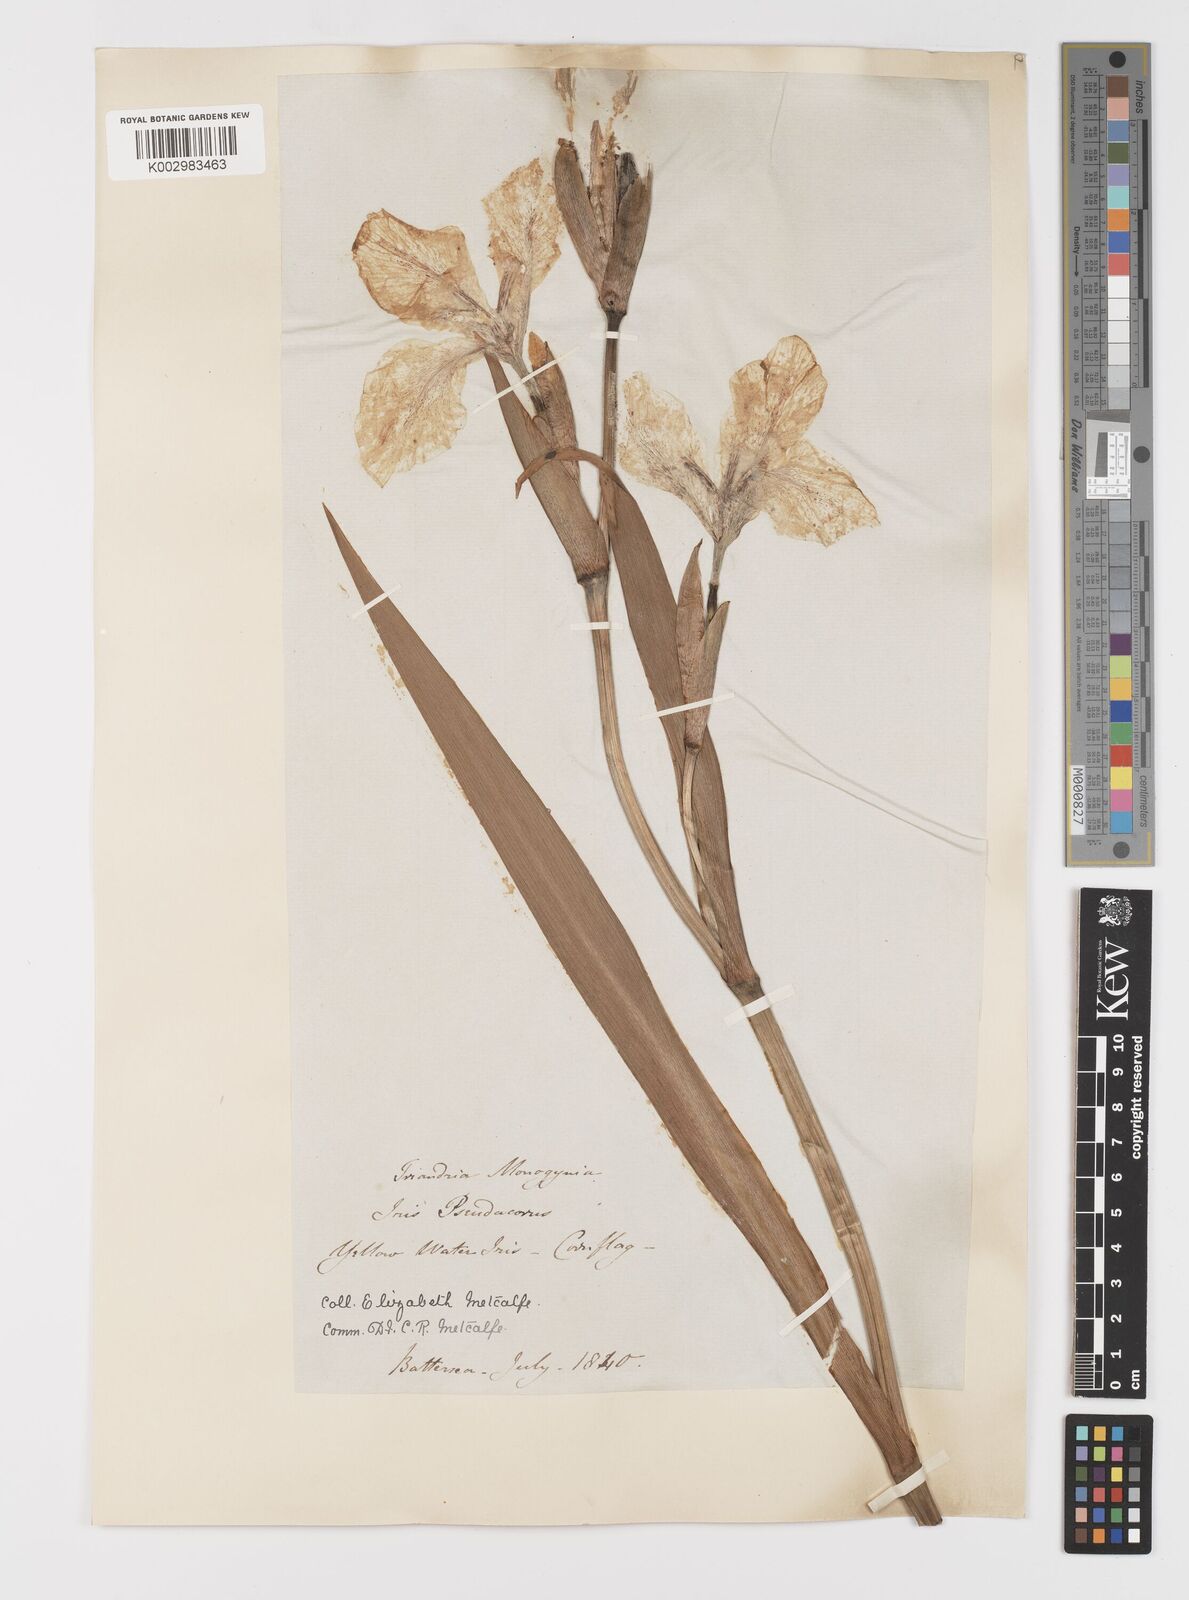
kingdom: Plantae
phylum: Tracheophyta
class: Liliopsida
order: Asparagales
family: Iridaceae
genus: Iris
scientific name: Iris pseudacorus
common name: Yellow flag
